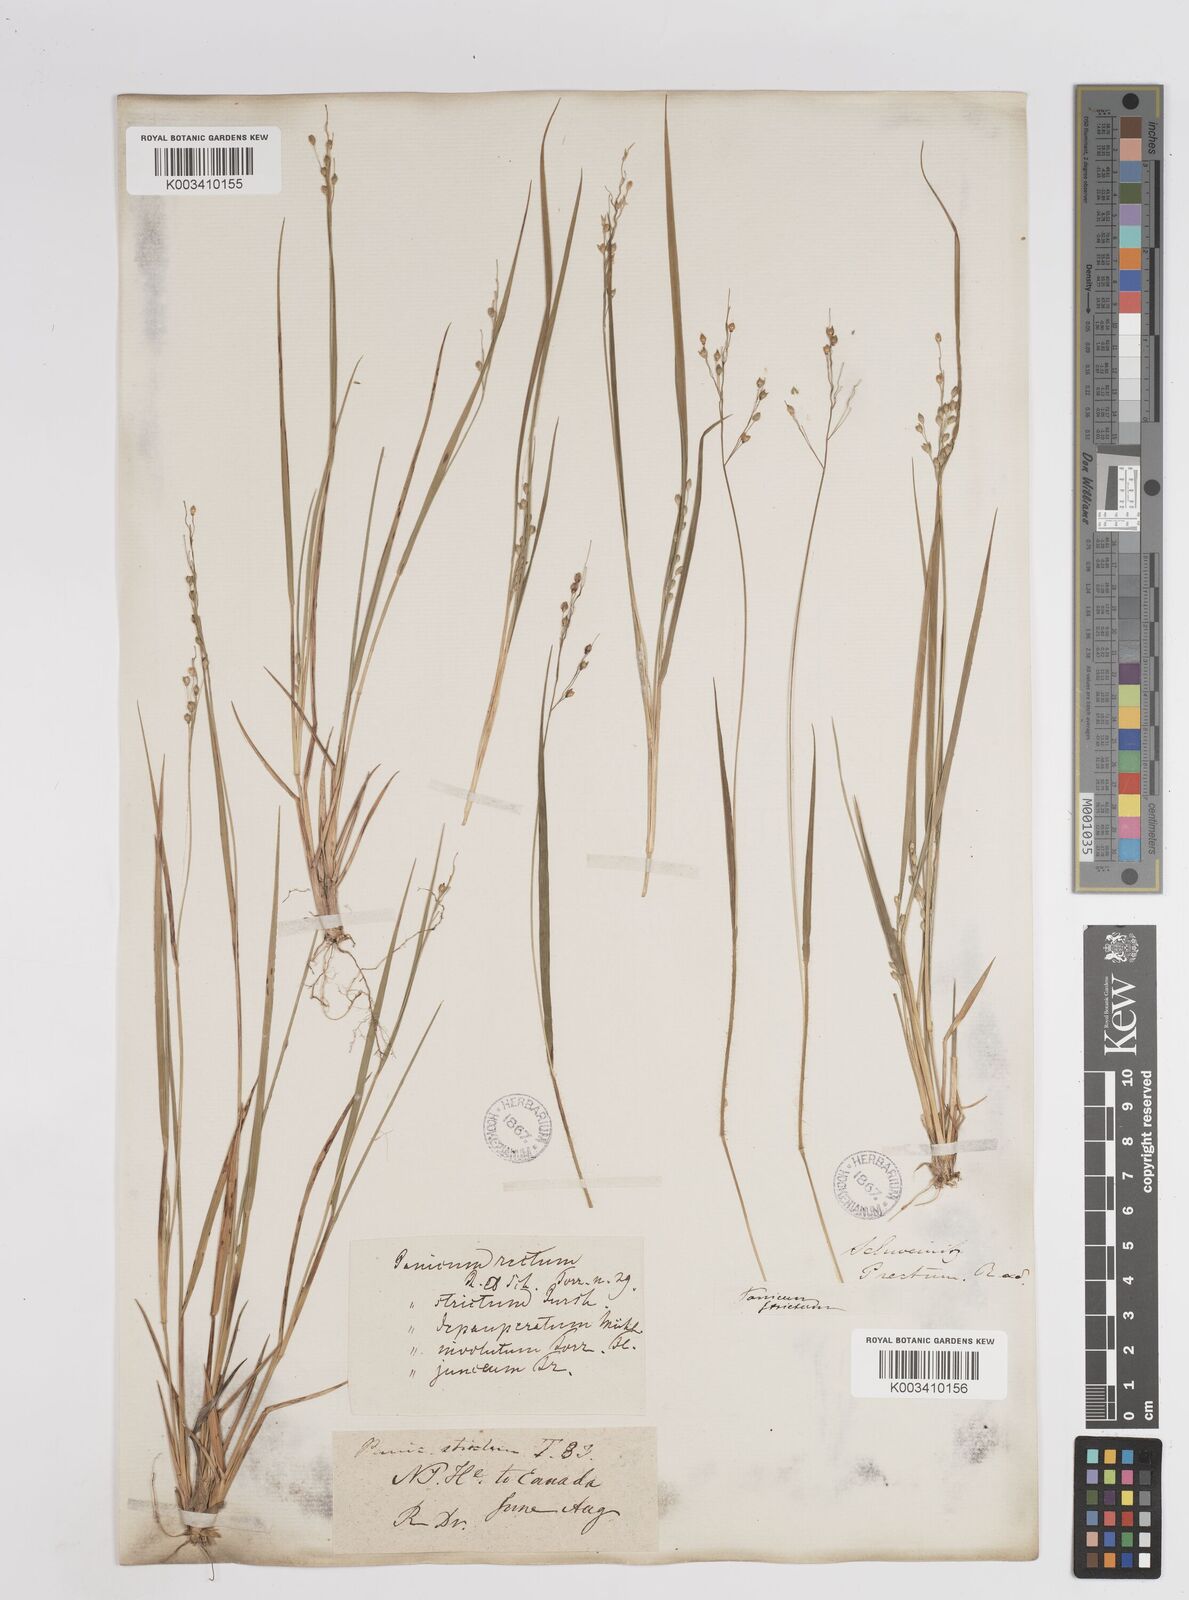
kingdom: Plantae
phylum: Tracheophyta
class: Liliopsida
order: Poales
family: Poaceae
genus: Dichanthelium
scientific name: Dichanthelium depauperatum
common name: Depauperate panicgrass
